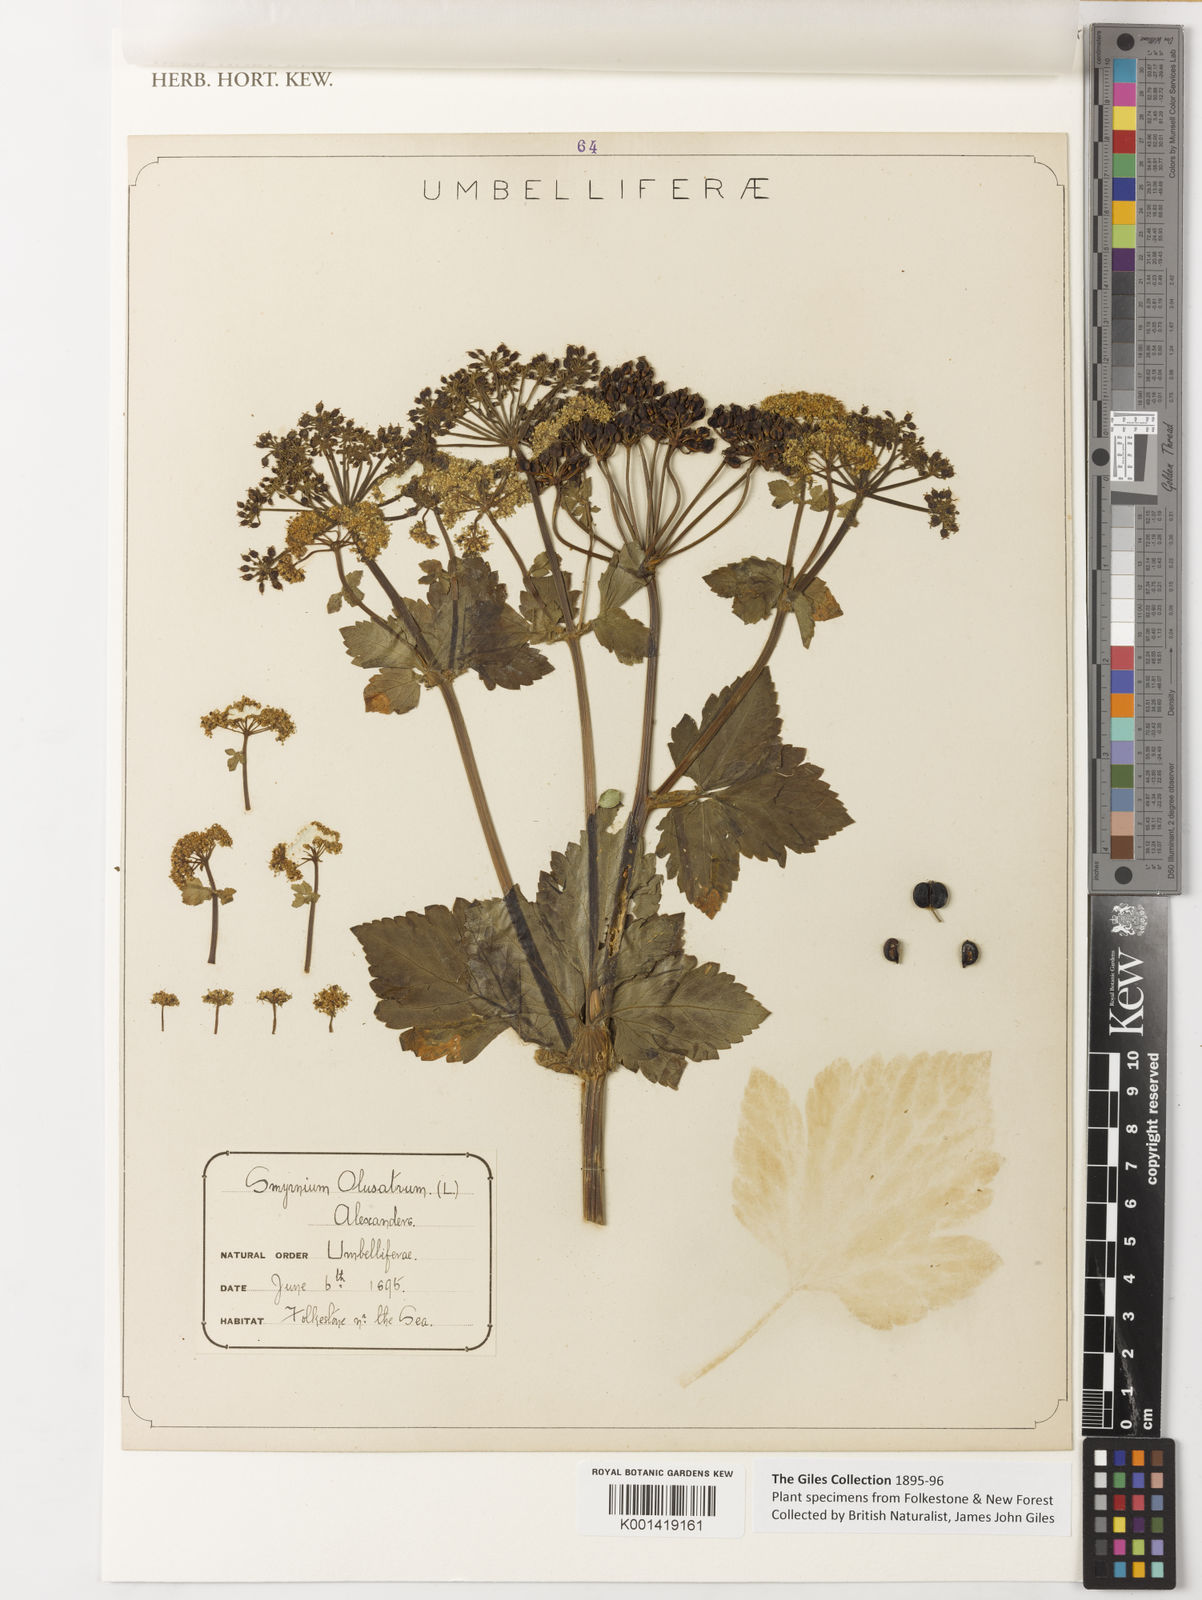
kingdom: Plantae
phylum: Tracheophyta
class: Magnoliopsida
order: Apiales
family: Apiaceae
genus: Smyrnium
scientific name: Smyrnium olusatrum
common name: Alexanders
